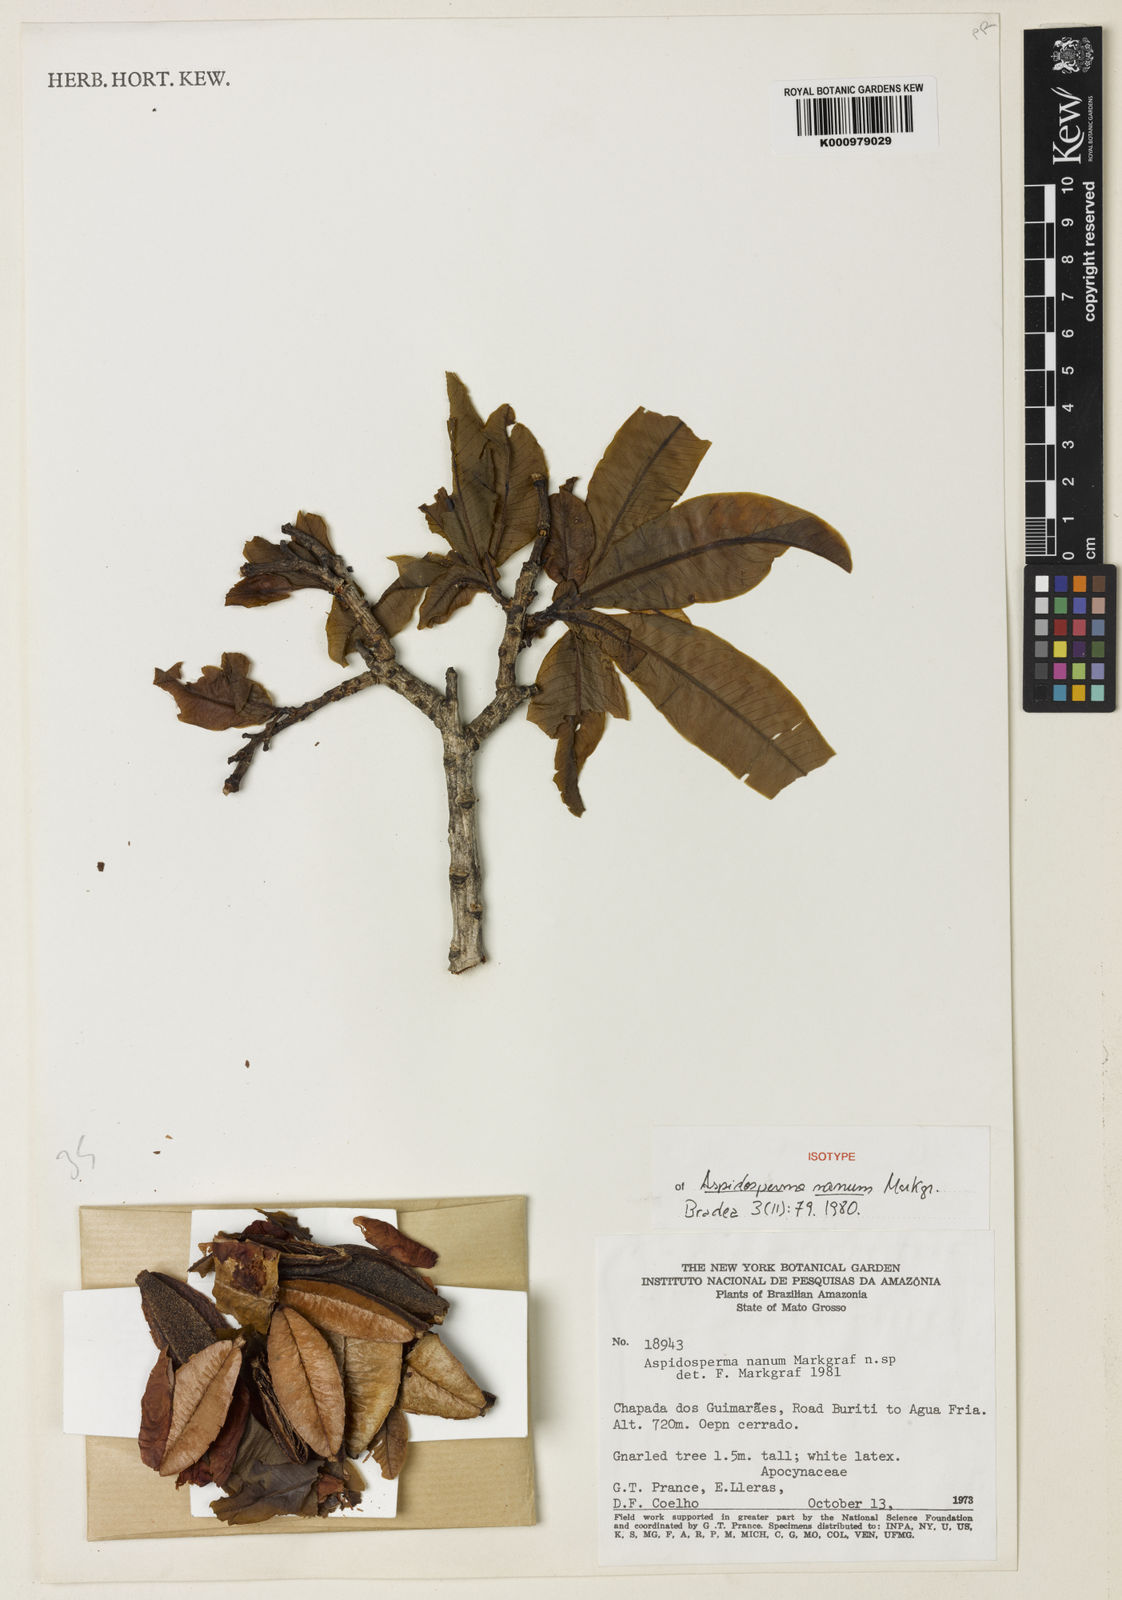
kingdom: Plantae
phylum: Tracheophyta
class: Magnoliopsida
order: Gentianales
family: Apocynaceae
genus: Aspidosperma
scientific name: Aspidosperma nanum
